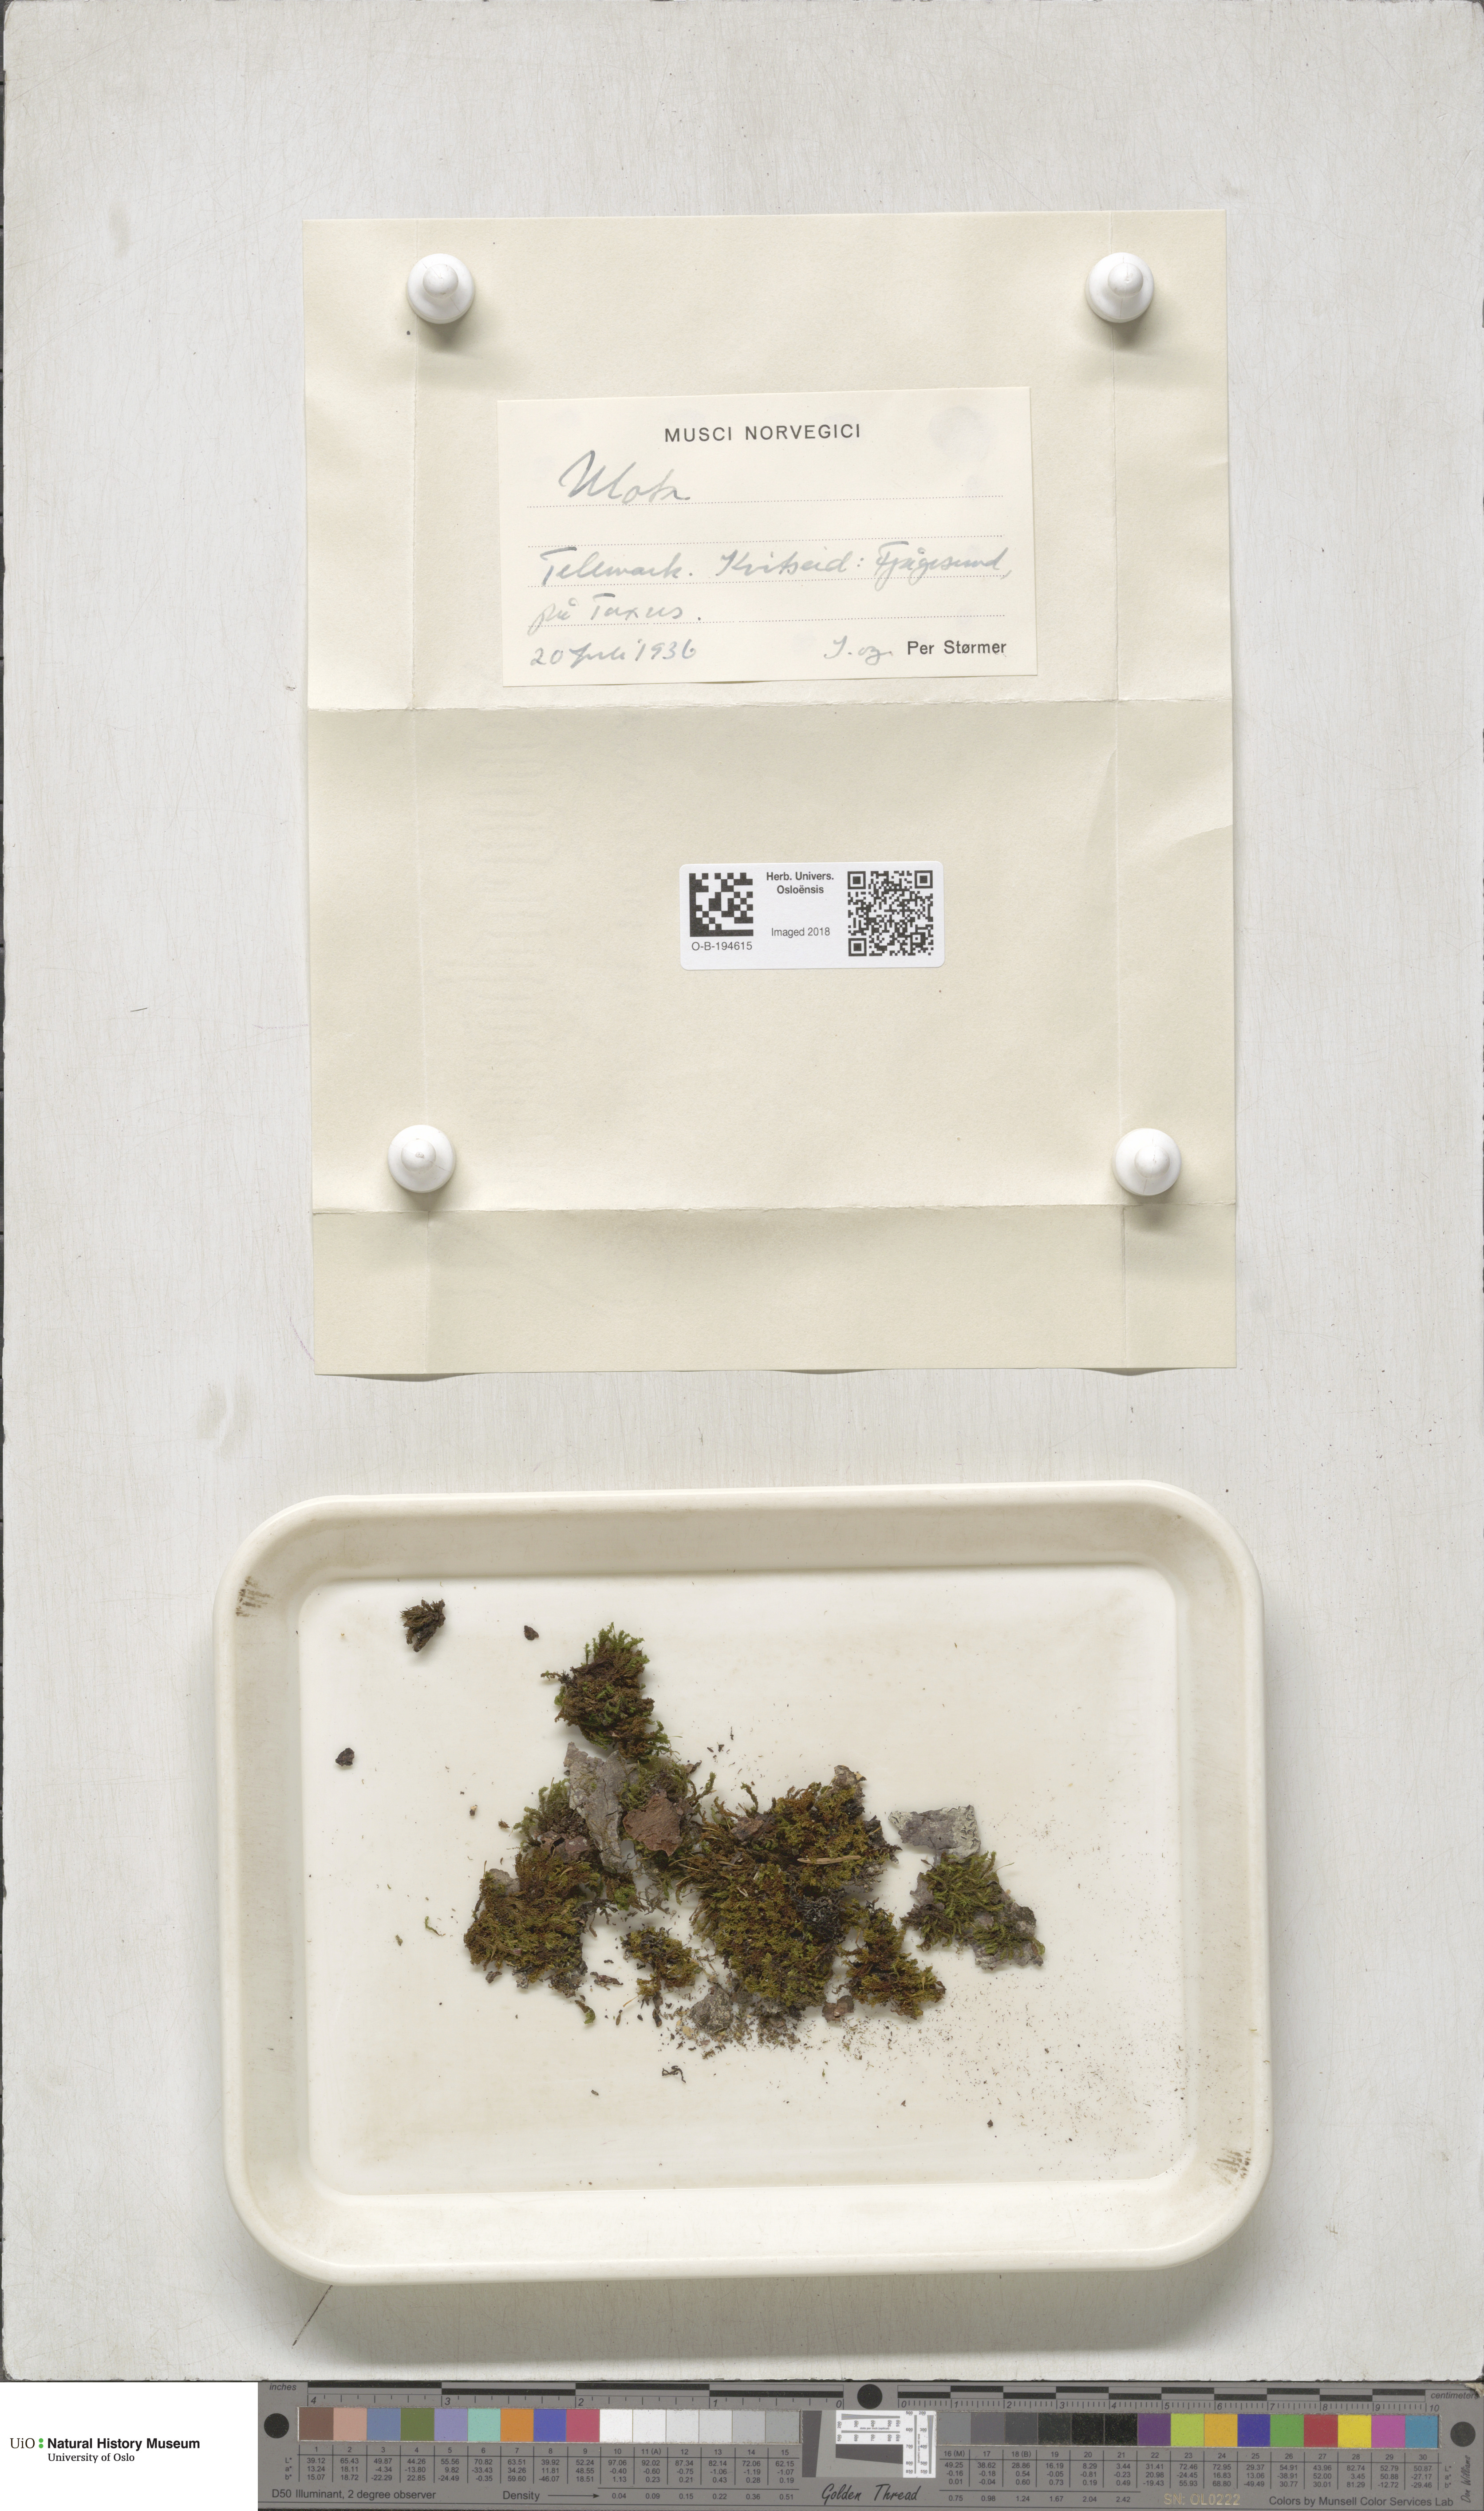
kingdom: Plantae
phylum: Bryophyta
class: Bryopsida
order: Orthotrichales
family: Orthotrichaceae
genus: Ulota
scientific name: Ulota
